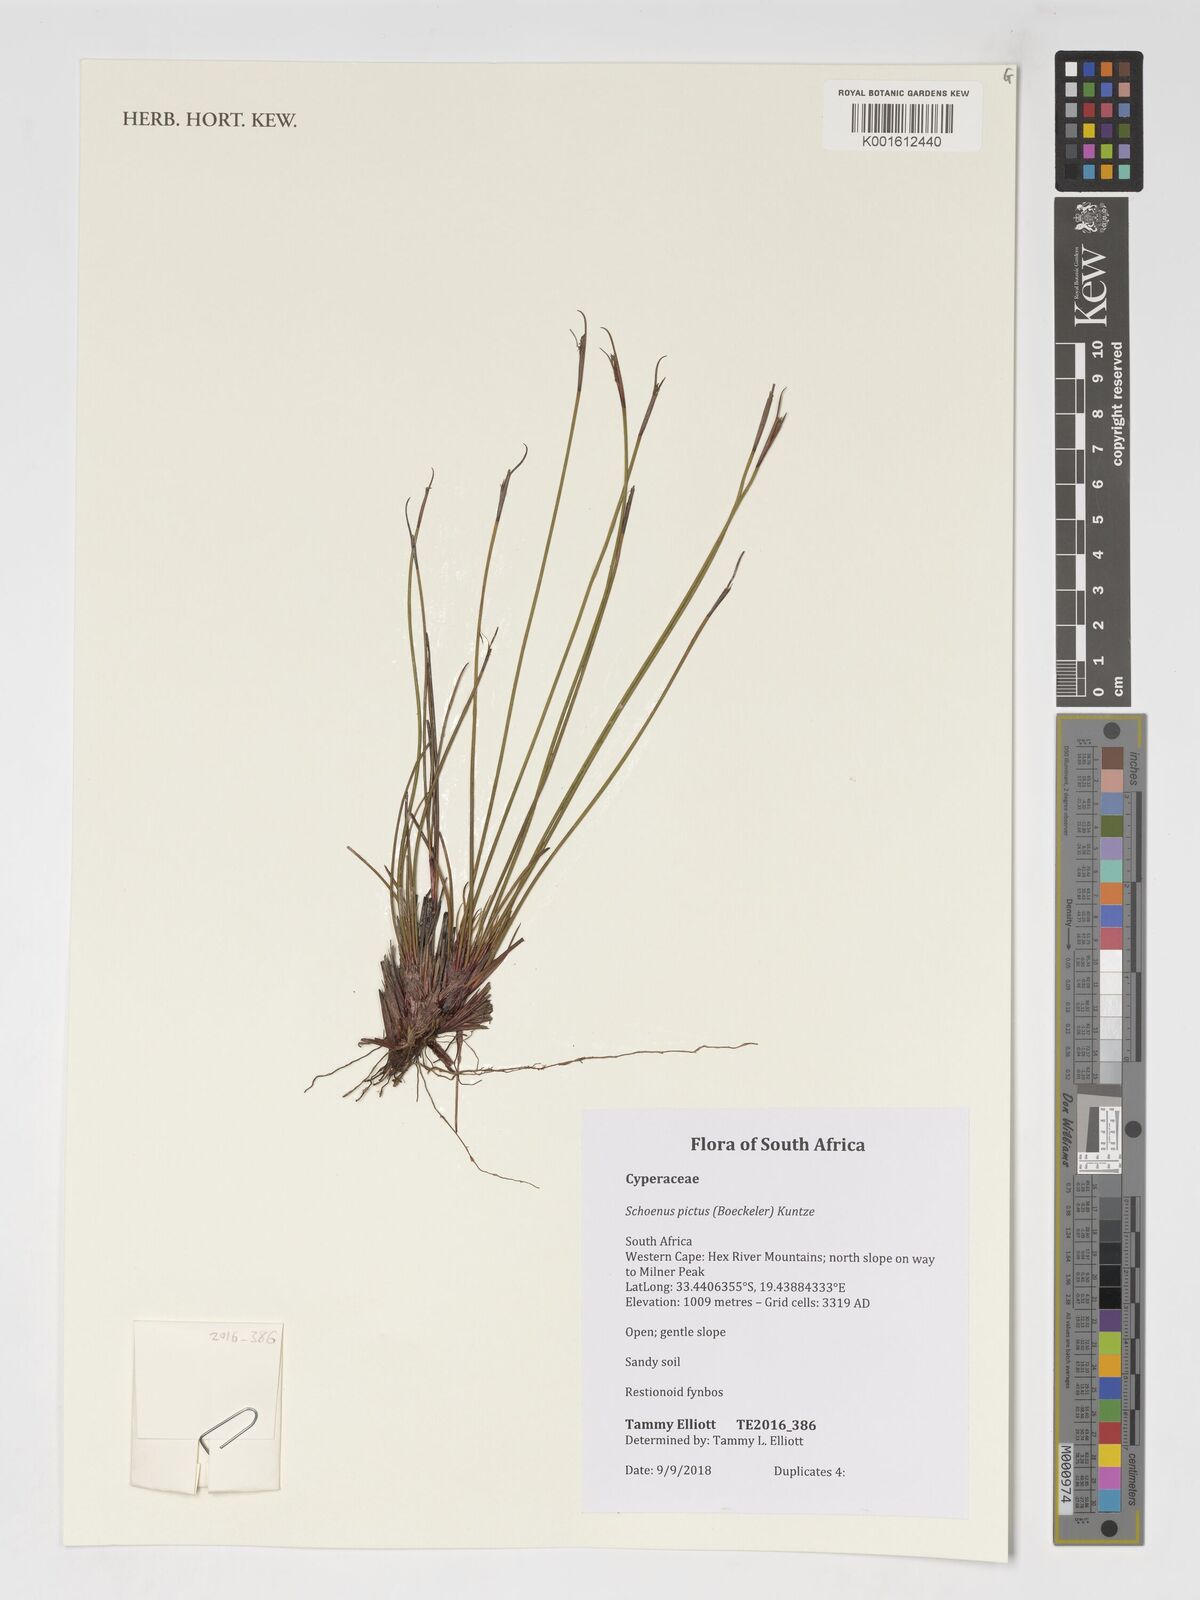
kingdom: Plantae
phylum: Tracheophyta
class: Liliopsida
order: Poales
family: Cyperaceae
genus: Schoenus
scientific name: Schoenus pictus
